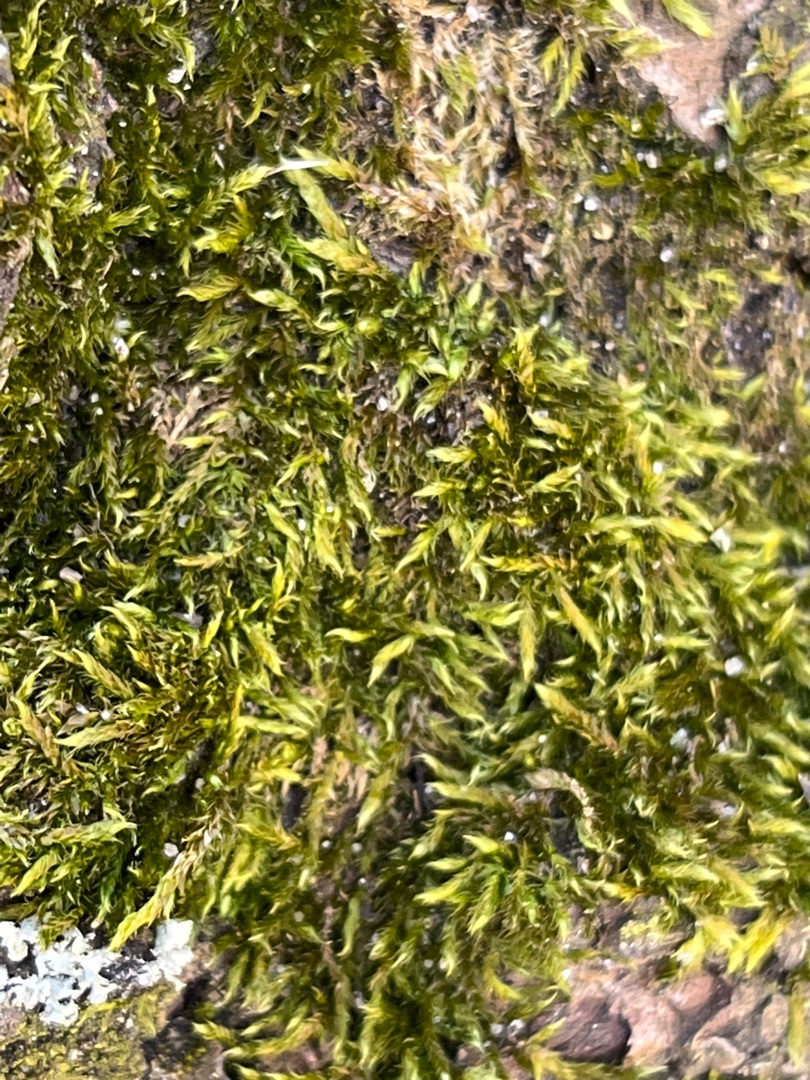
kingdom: Plantae
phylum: Bryophyta
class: Bryopsida
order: Hypnales
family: Hypnaceae
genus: Hypnum
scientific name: Hypnum cupressiforme
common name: Almindelig cypresmos
